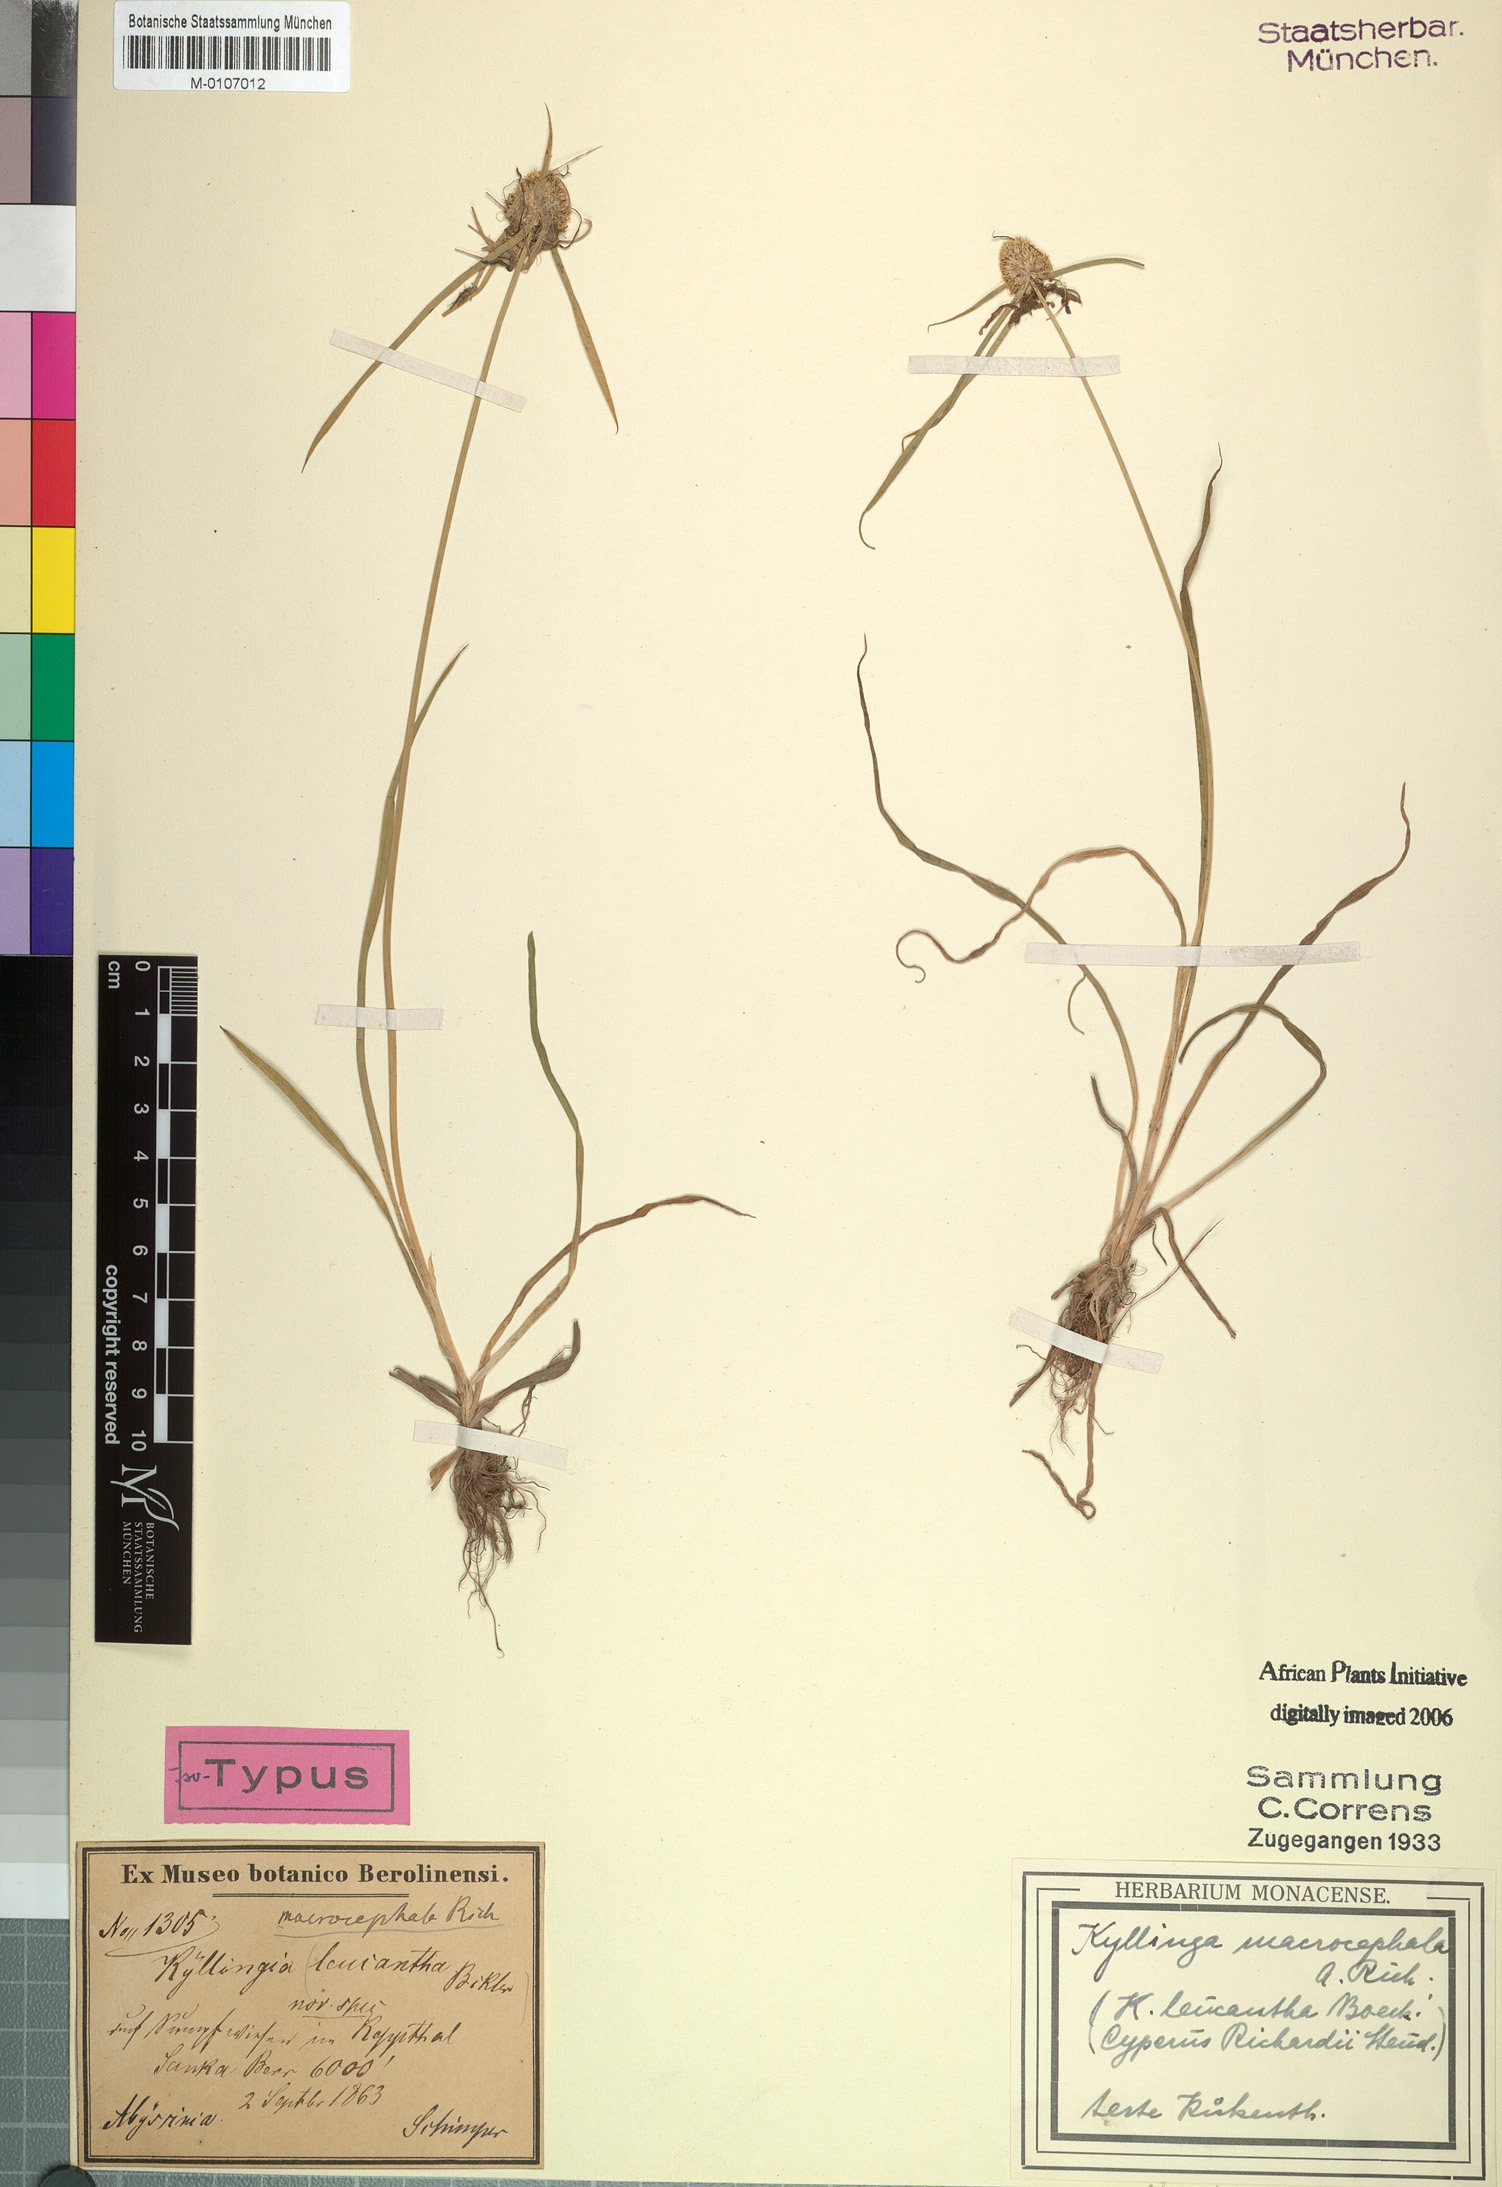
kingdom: Plantae
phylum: Tracheophyta
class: Liliopsida
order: Poales
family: Cyperaceae
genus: Cyperus
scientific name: Cyperus richardii
